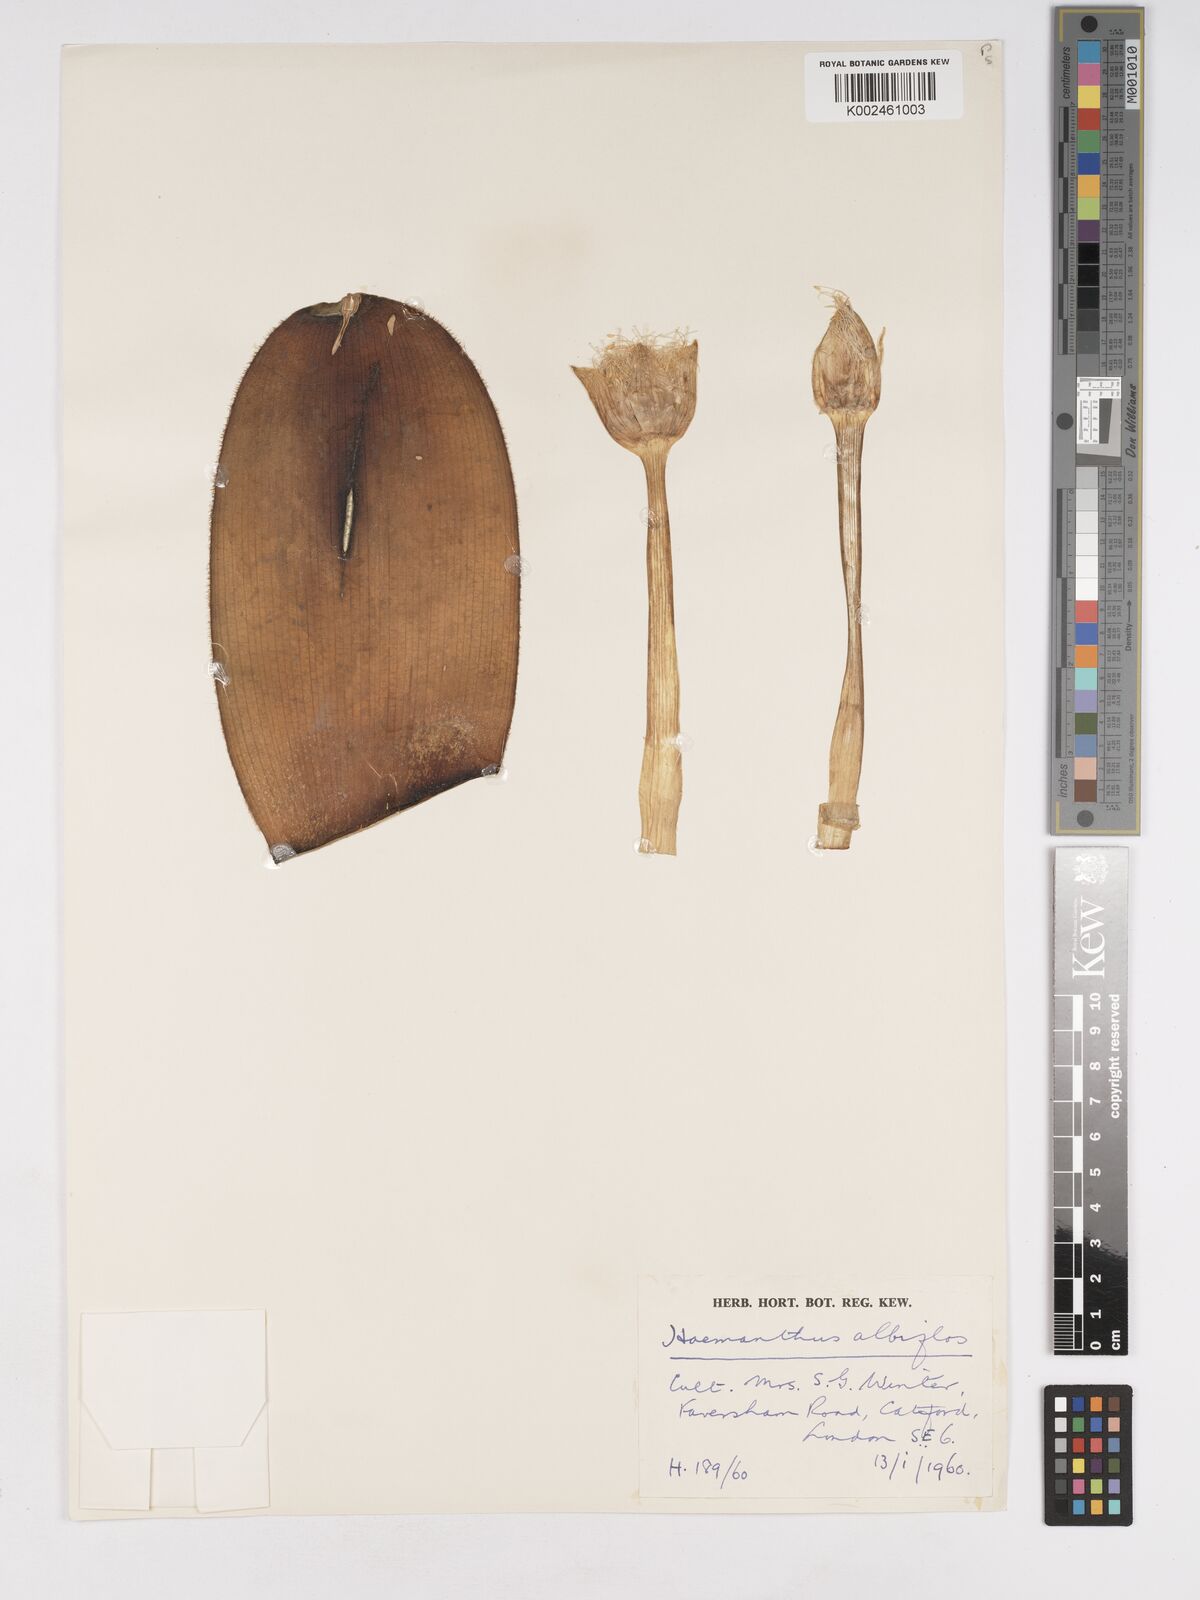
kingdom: Plantae
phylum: Tracheophyta
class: Liliopsida
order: Asparagales
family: Amaryllidaceae
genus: Haemanthus
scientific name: Haemanthus albiflos
